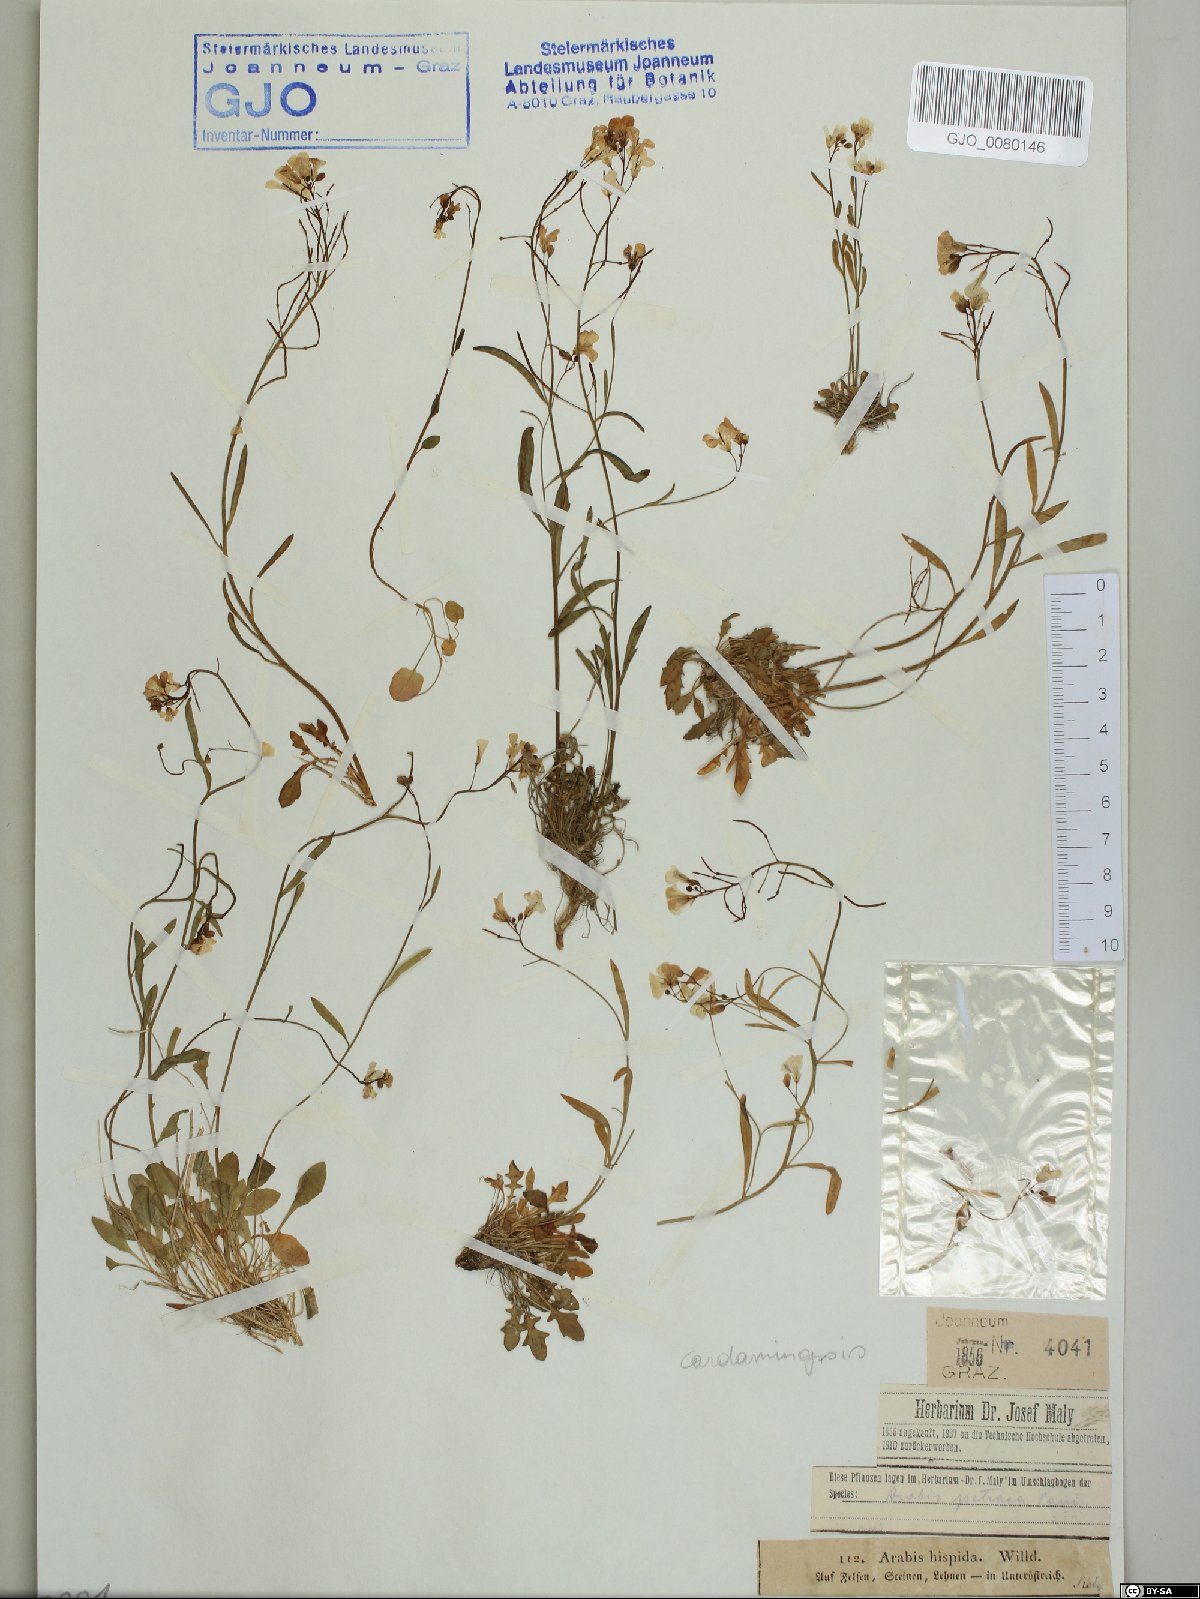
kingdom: Plantae
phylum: Tracheophyta
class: Magnoliopsida
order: Brassicales
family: Brassicaceae
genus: Arabidopsis
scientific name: Arabidopsis lyrata
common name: Lyrate rockcress
